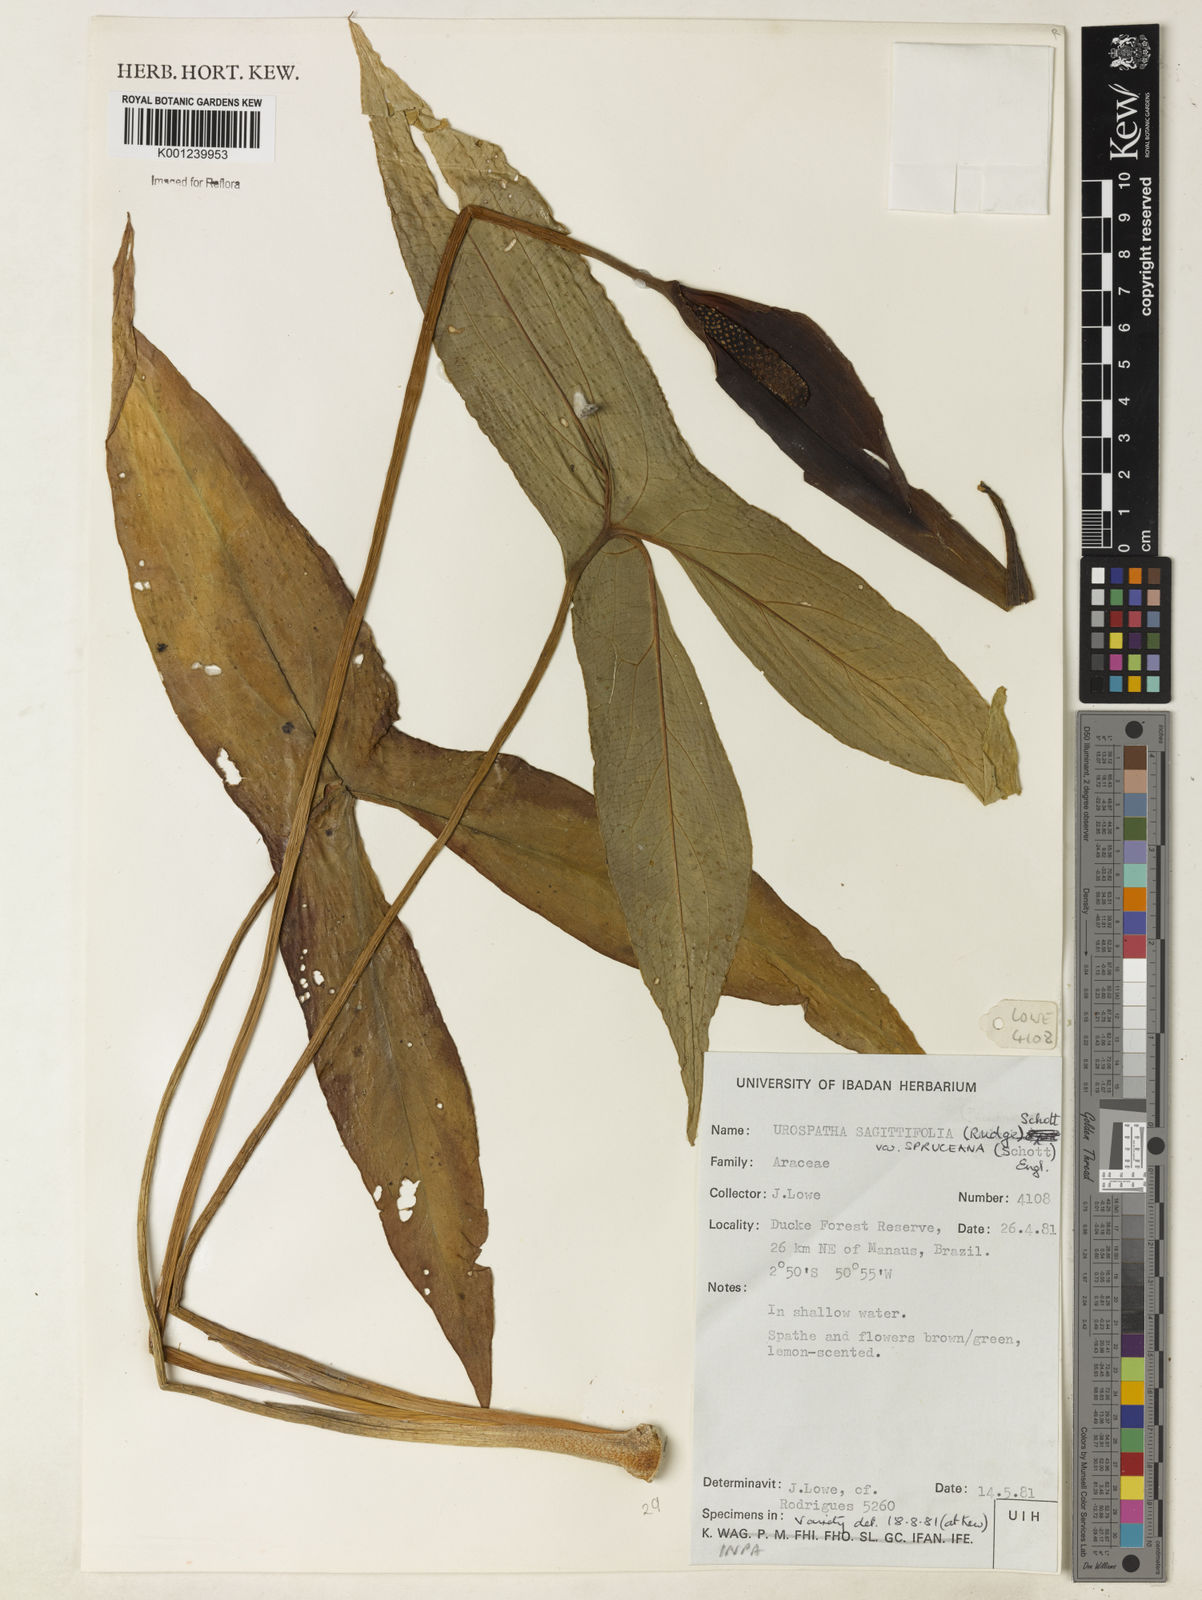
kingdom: Plantae
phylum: Tracheophyta
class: Liliopsida
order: Alismatales
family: Araceae
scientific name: Araceae
